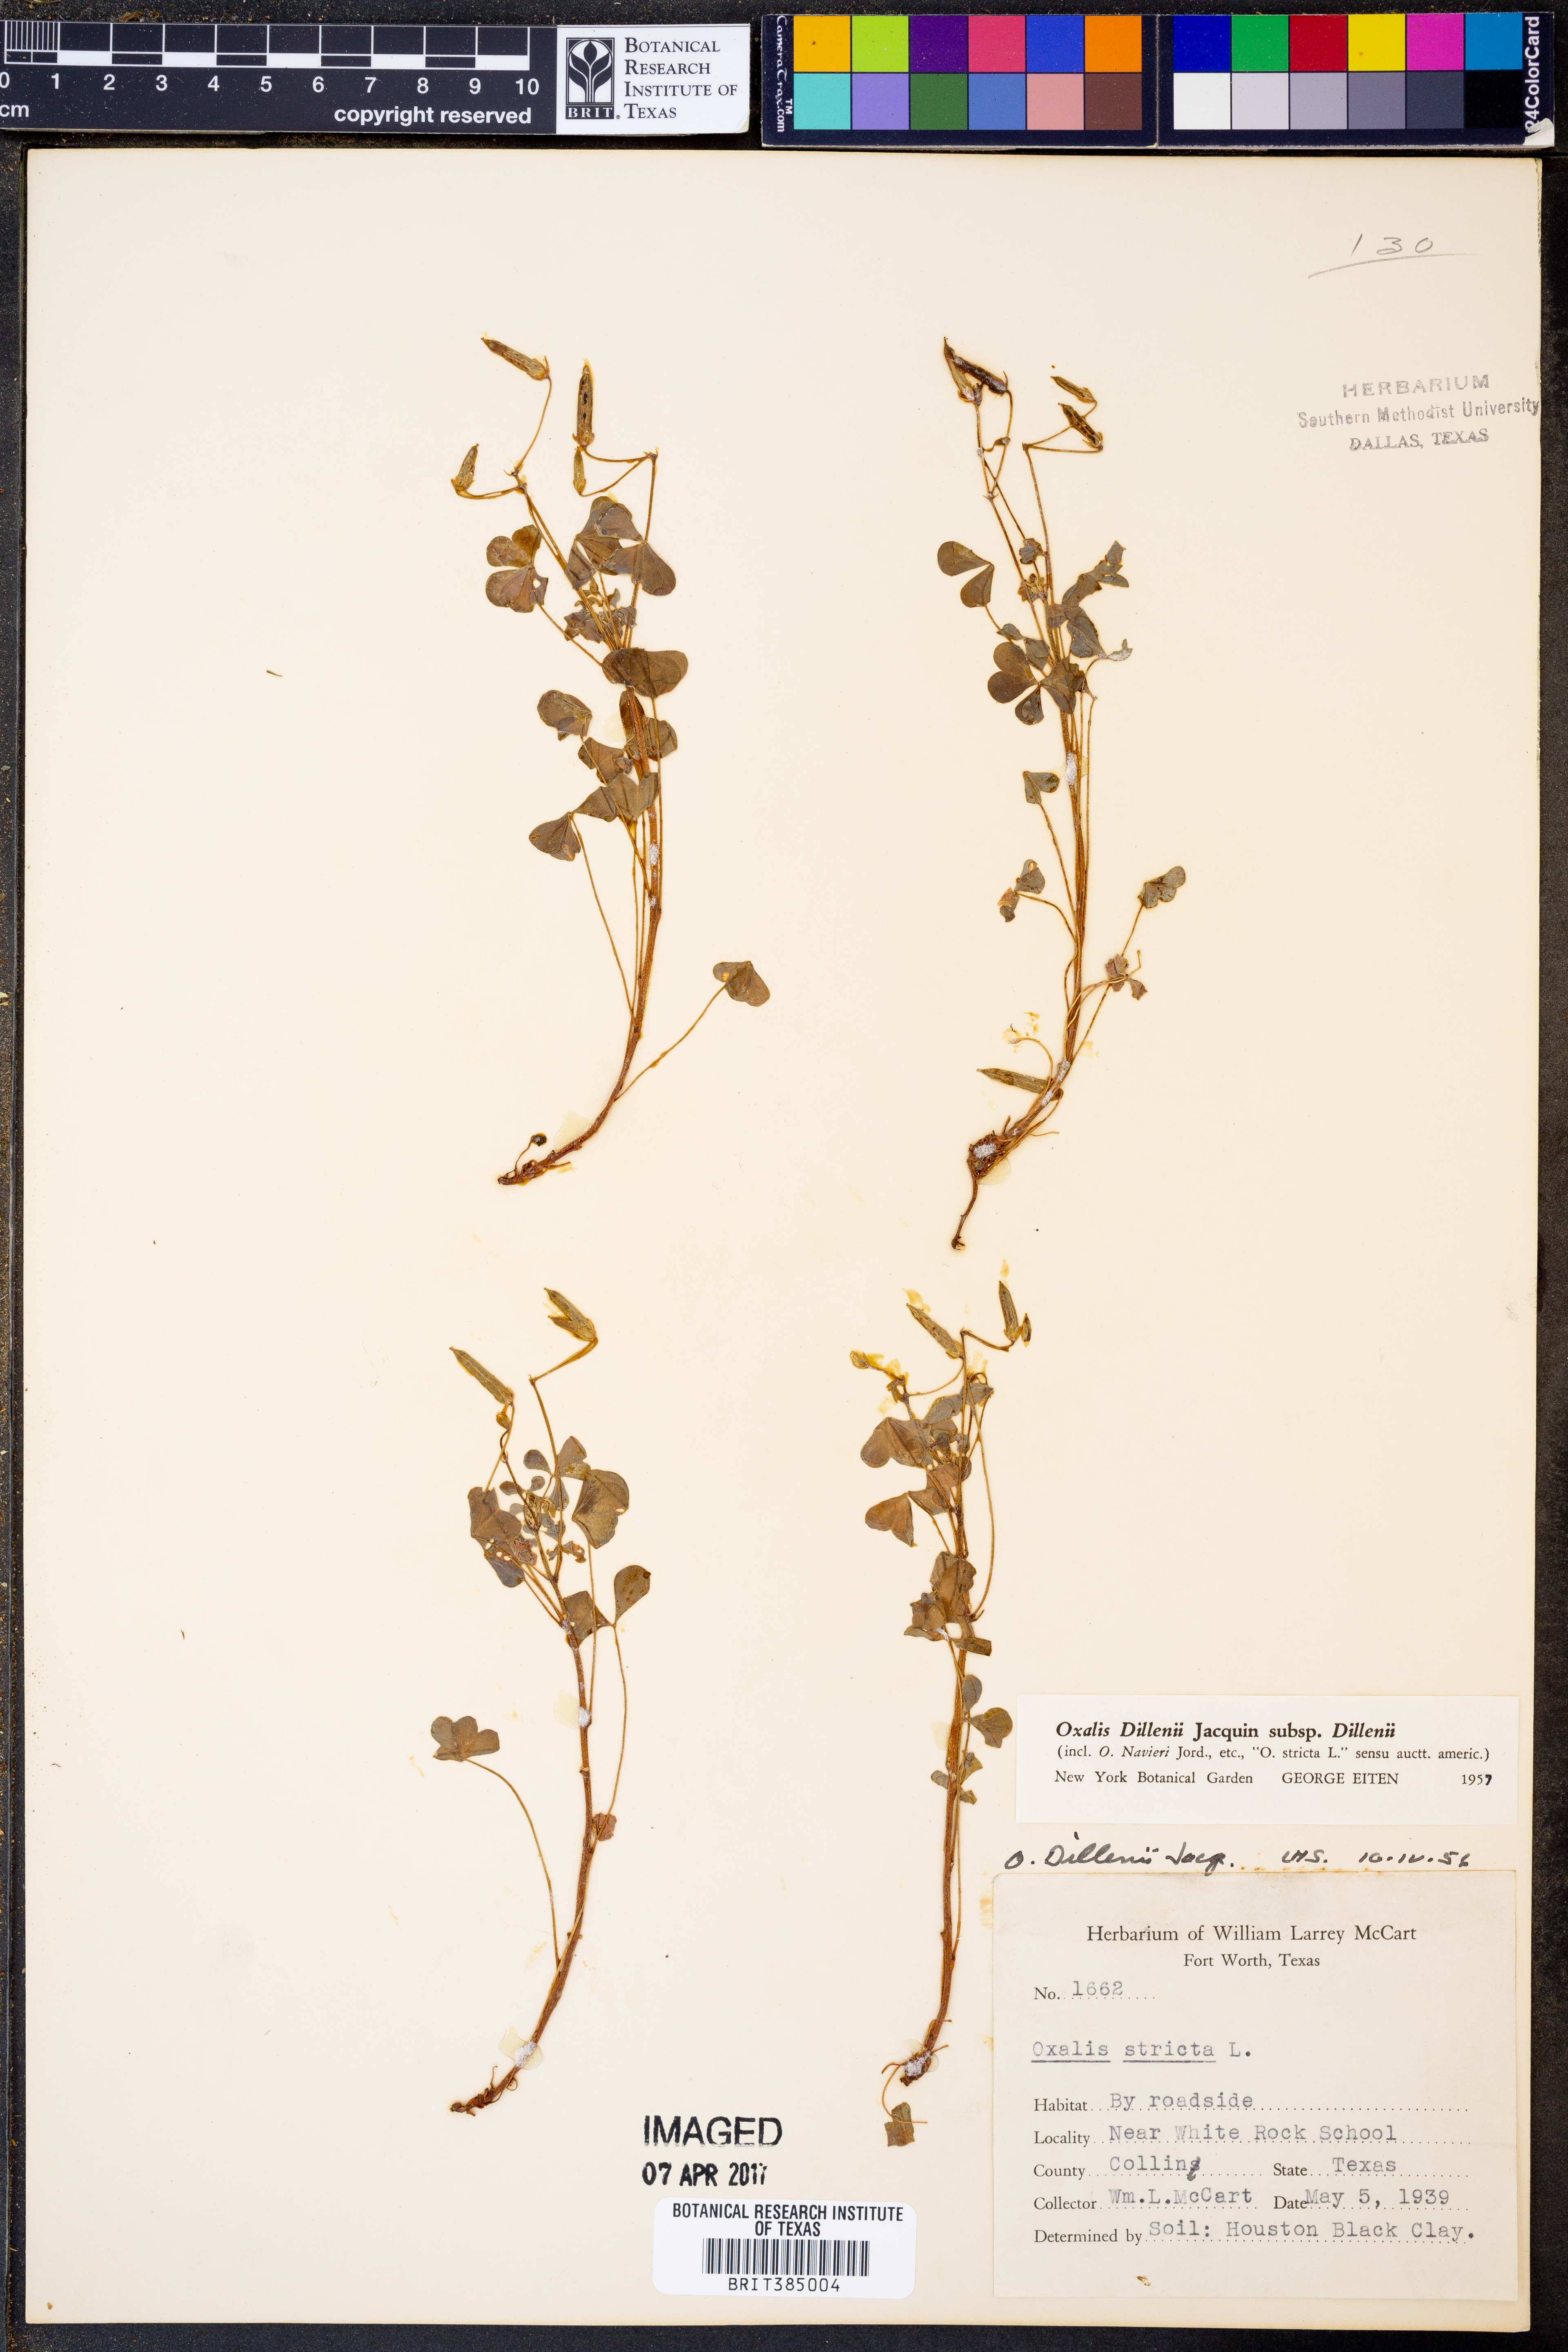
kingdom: Plantae
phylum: Tracheophyta
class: Magnoliopsida
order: Oxalidales
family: Oxalidaceae
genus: Oxalis
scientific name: Oxalis dillenii
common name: Sussex yellow-sorrel
